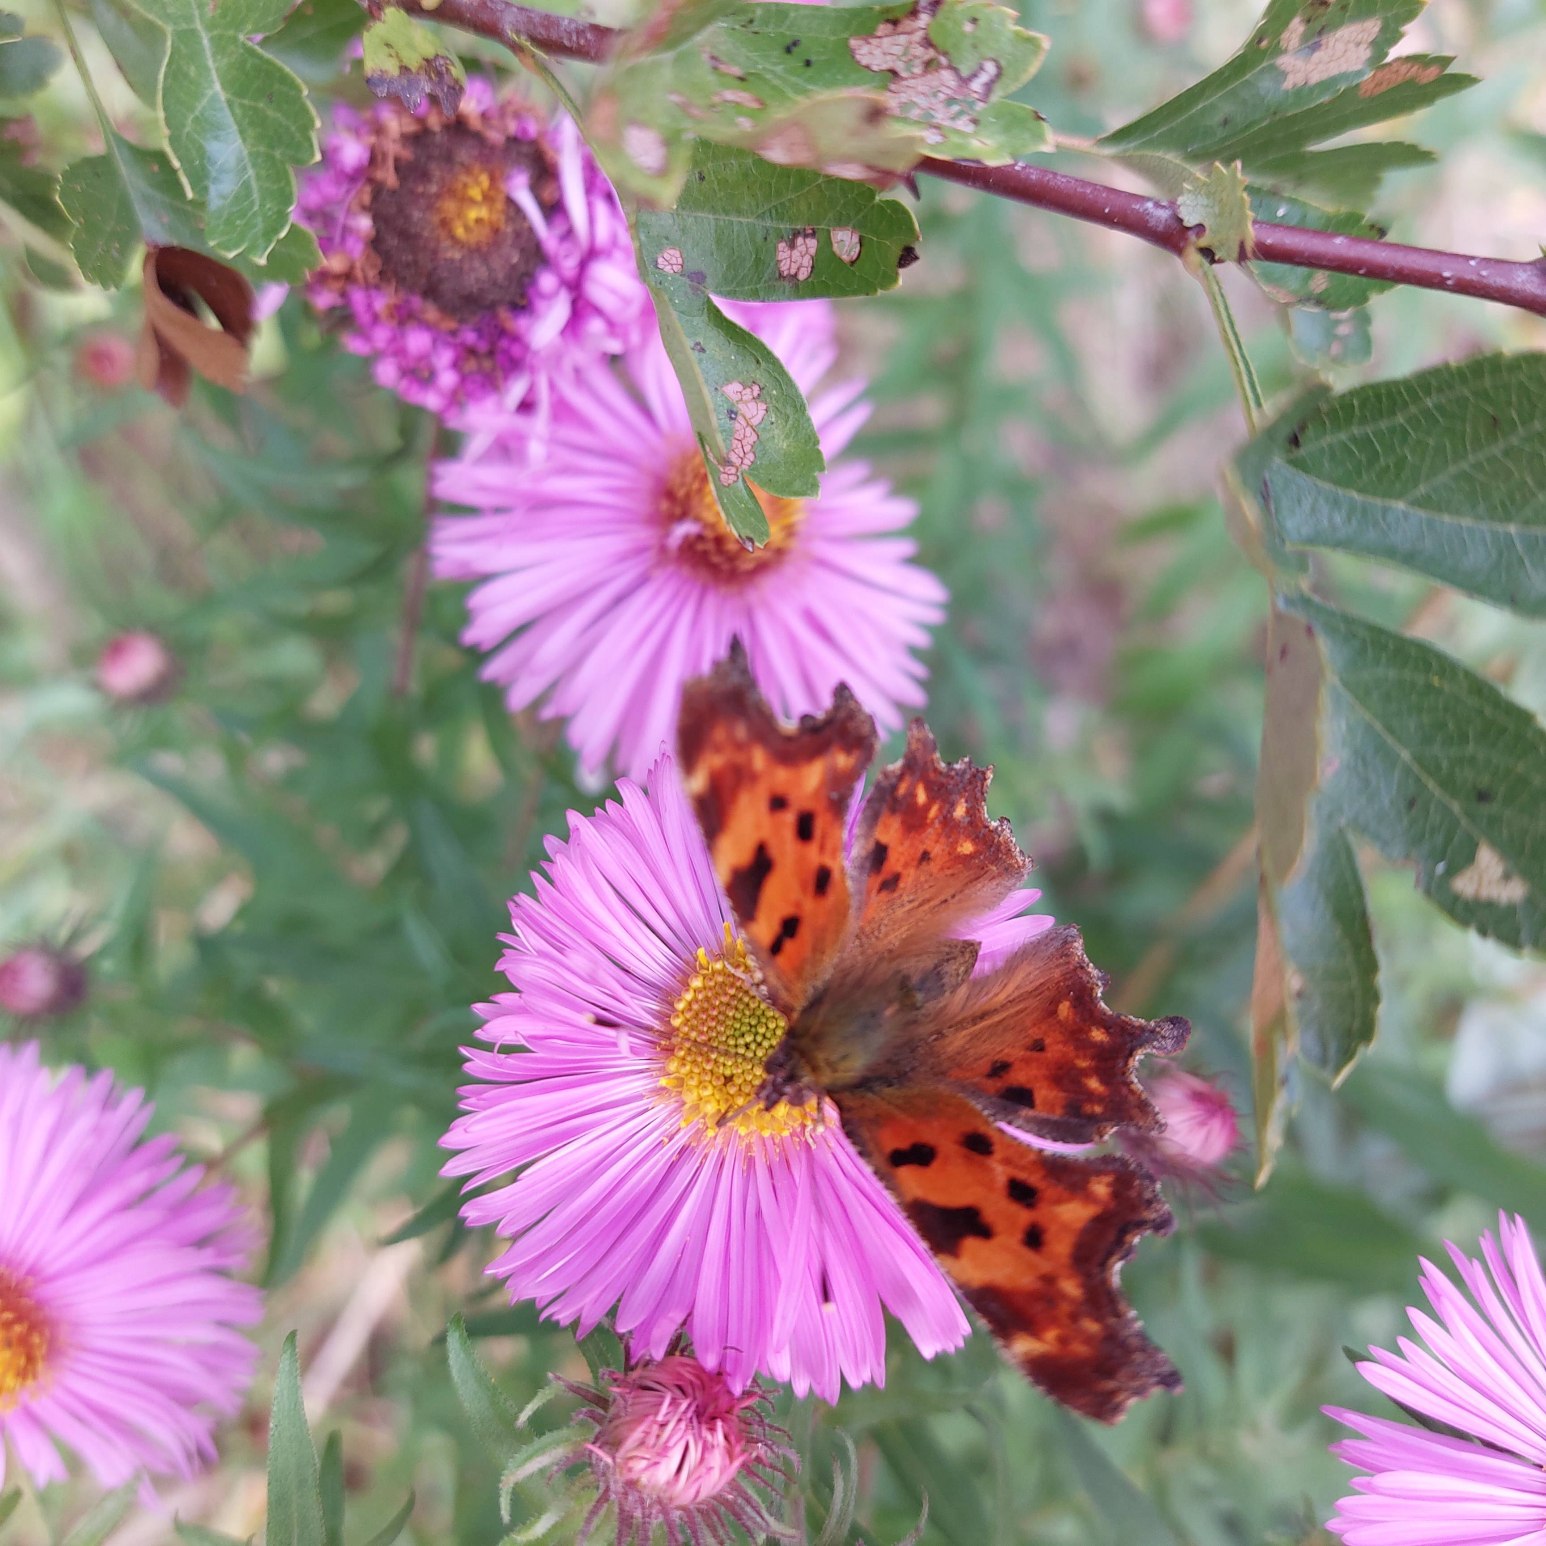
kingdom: Animalia
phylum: Arthropoda
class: Insecta
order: Lepidoptera
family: Nymphalidae
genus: Polygonia
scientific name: Polygonia c-album
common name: Det hvide C
